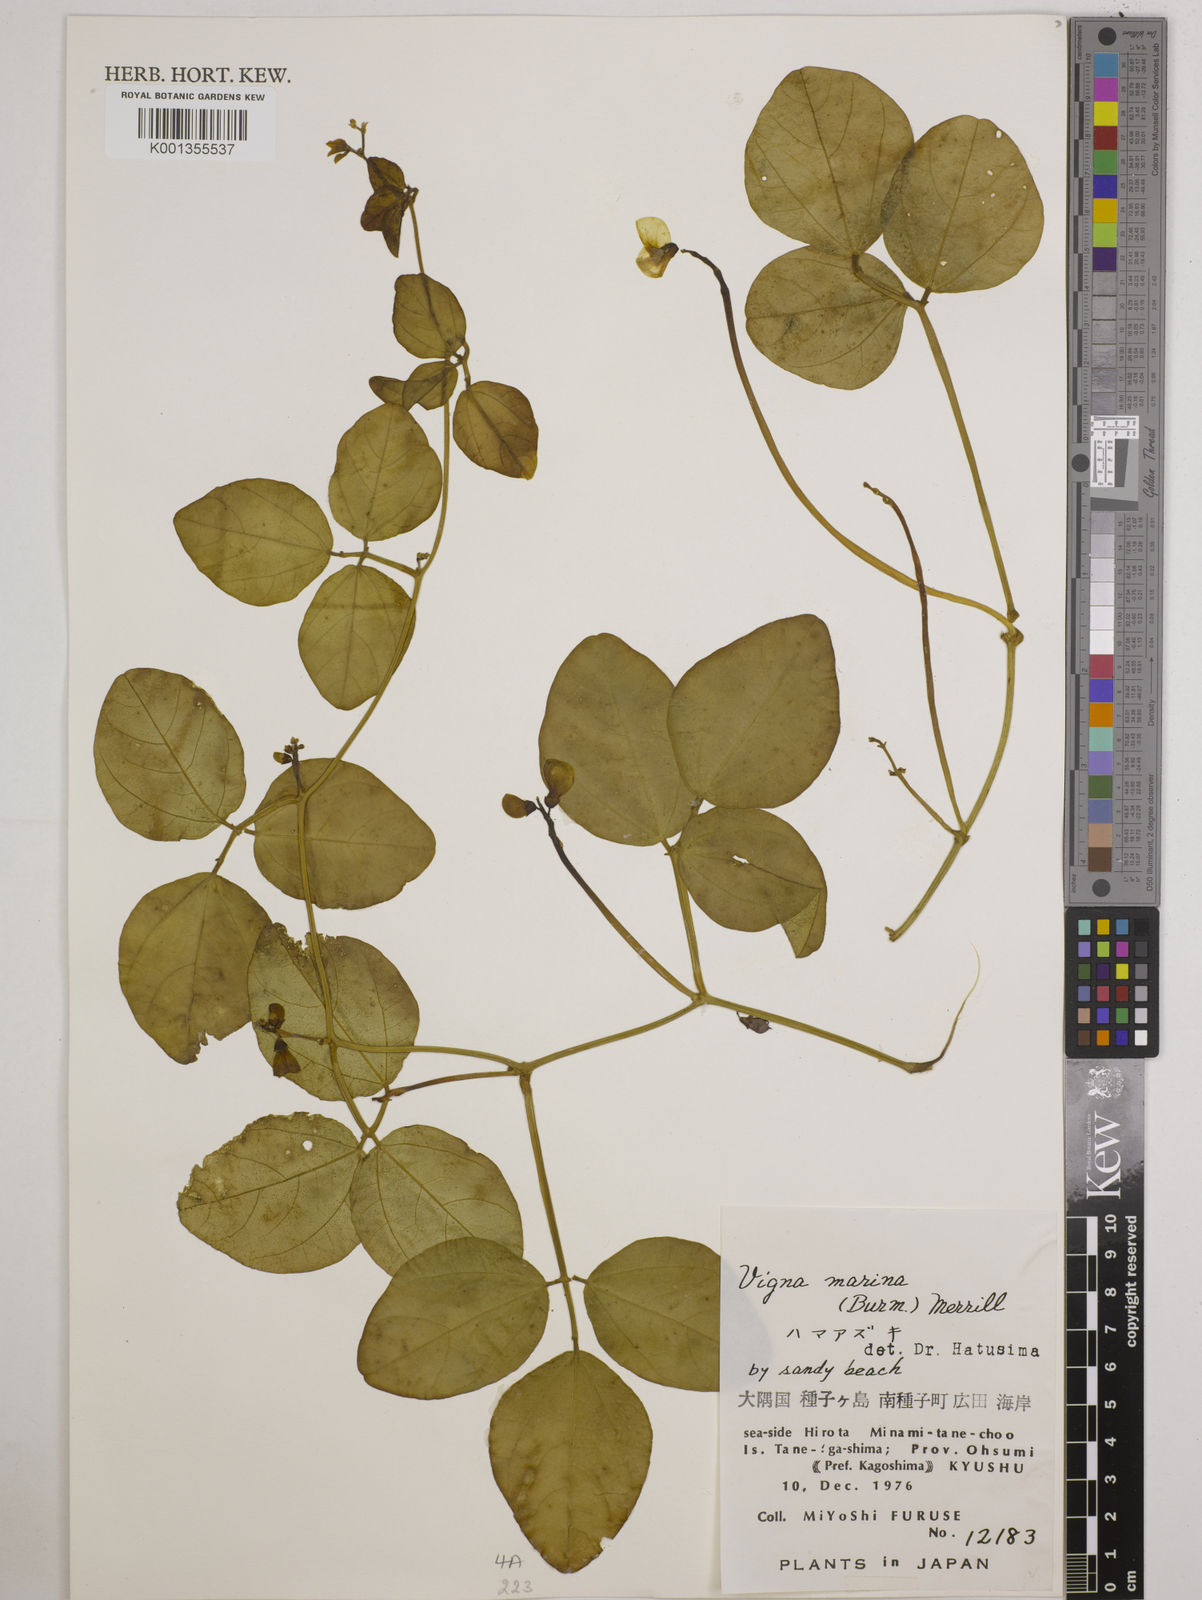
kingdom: Plantae
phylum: Tracheophyta
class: Magnoliopsida
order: Fabales
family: Fabaceae
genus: Vigna
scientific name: Vigna marina
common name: Dune-bean
